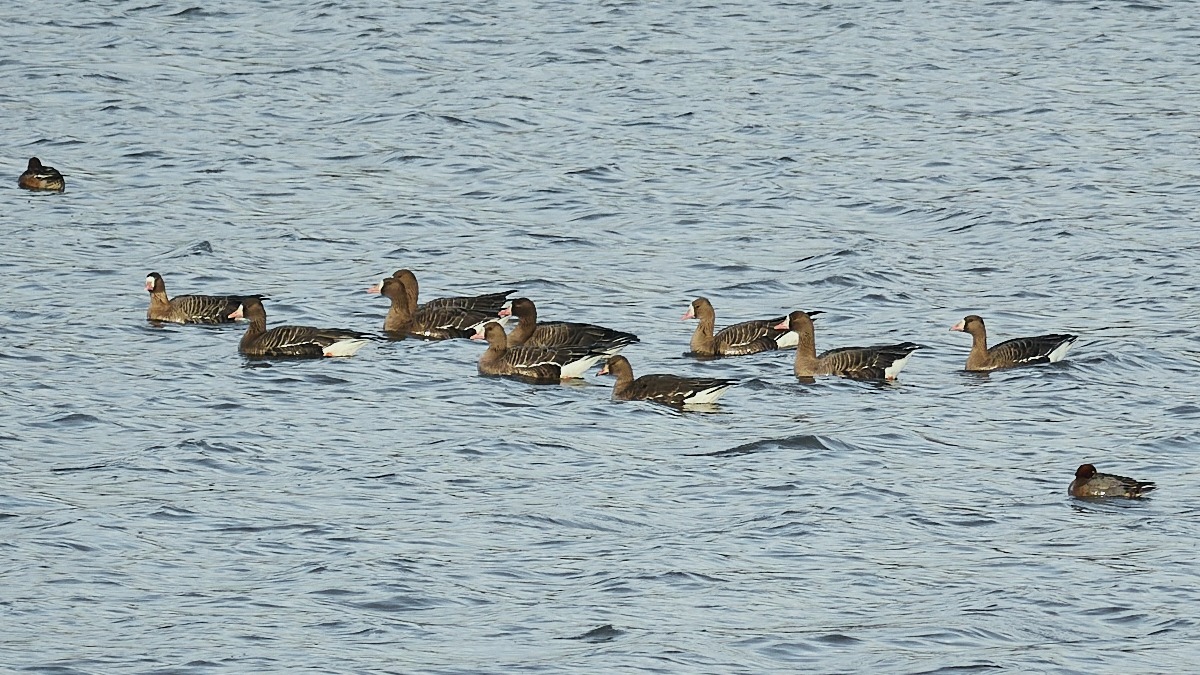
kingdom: Animalia
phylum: Chordata
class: Aves
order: Anseriformes
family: Anatidae
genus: Anser
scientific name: Anser albifrons
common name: Blisgås
